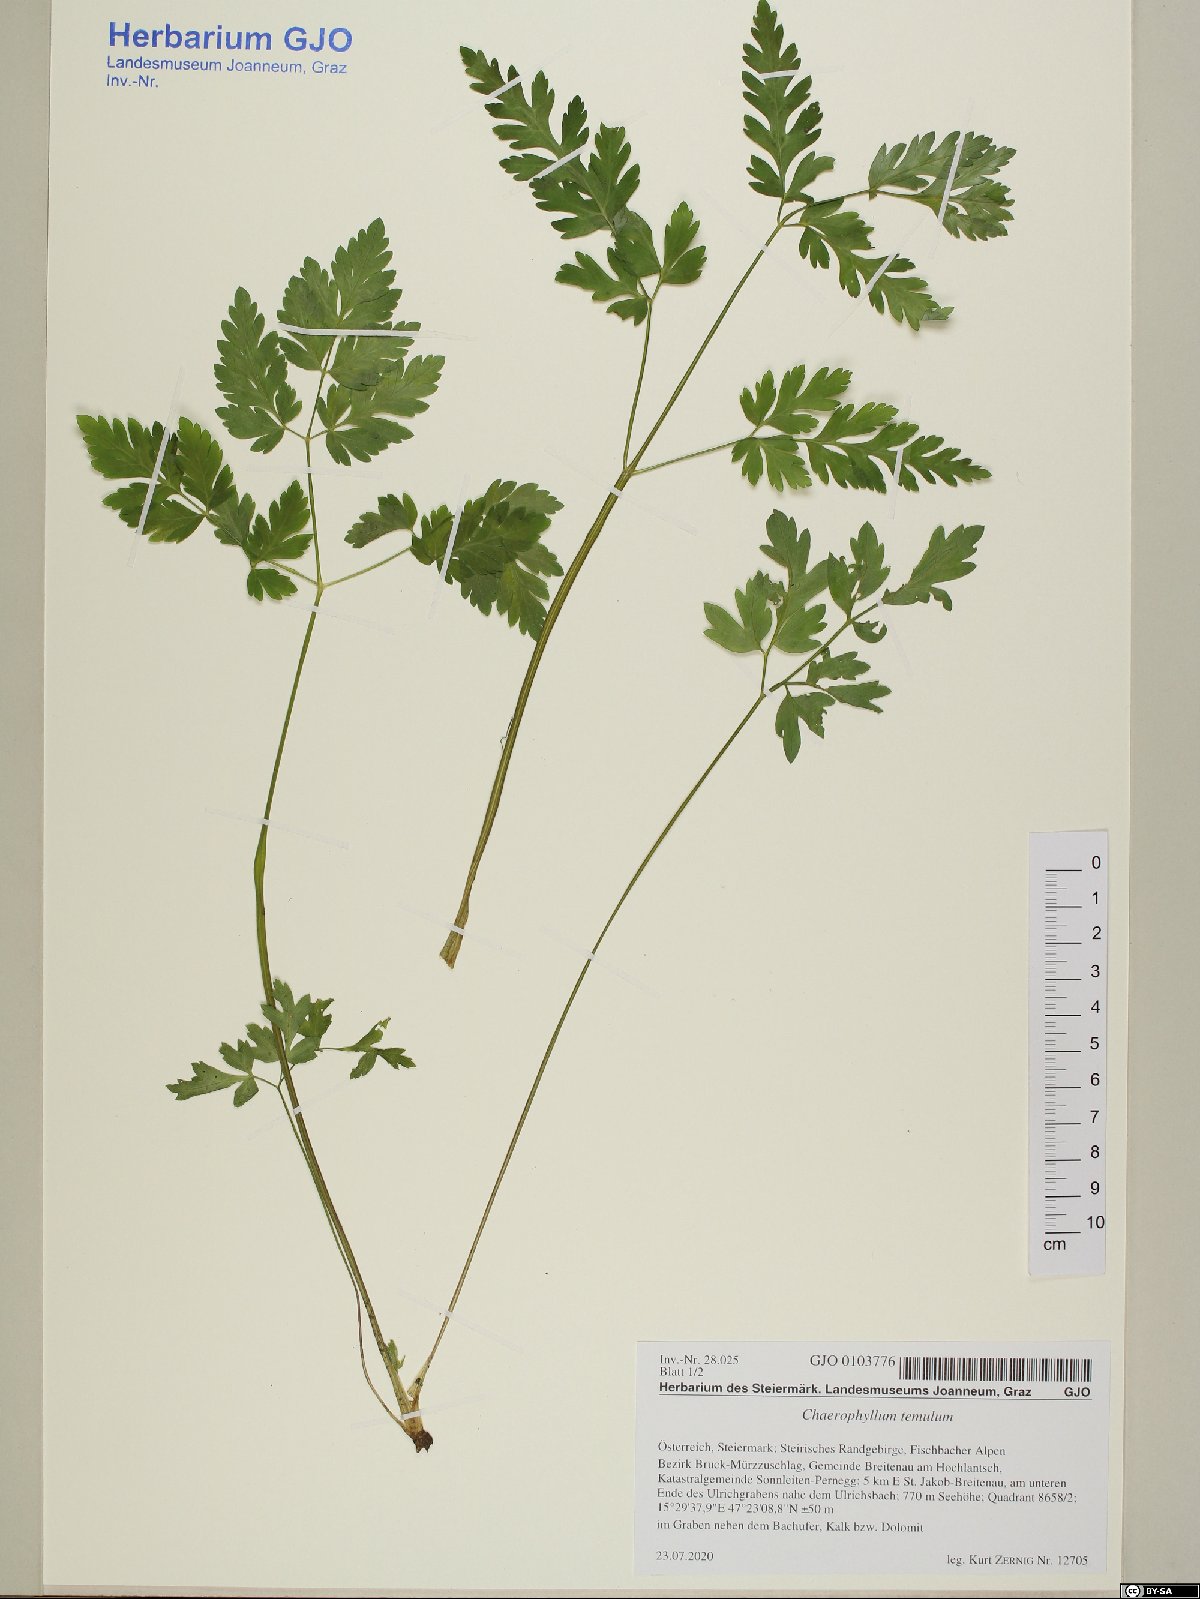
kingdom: Plantae
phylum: Tracheophyta
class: Magnoliopsida
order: Apiales
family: Apiaceae
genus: Chaerophyllum
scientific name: Chaerophyllum temulum
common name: Rough chervil
